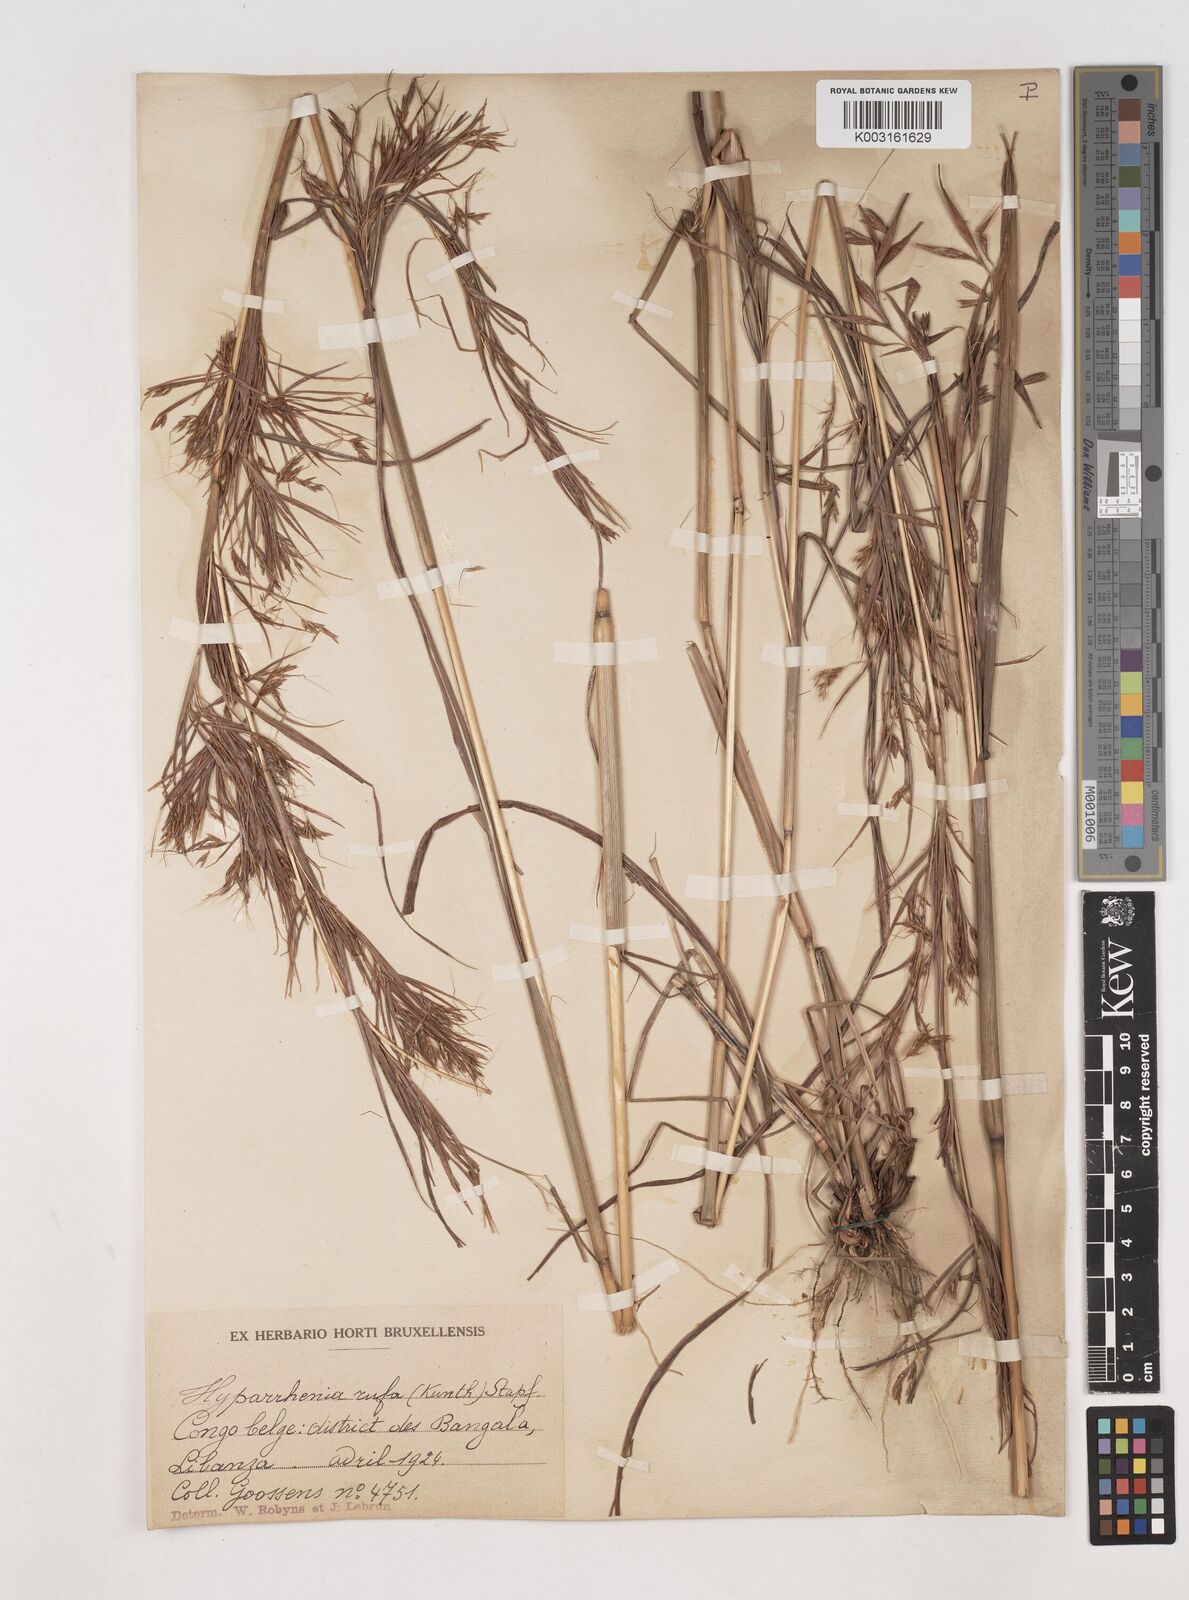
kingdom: Plantae
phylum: Tracheophyta
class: Liliopsida
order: Poales
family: Poaceae
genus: Hyparrhenia
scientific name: Hyparrhenia rufa
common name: Jaraguagrass
